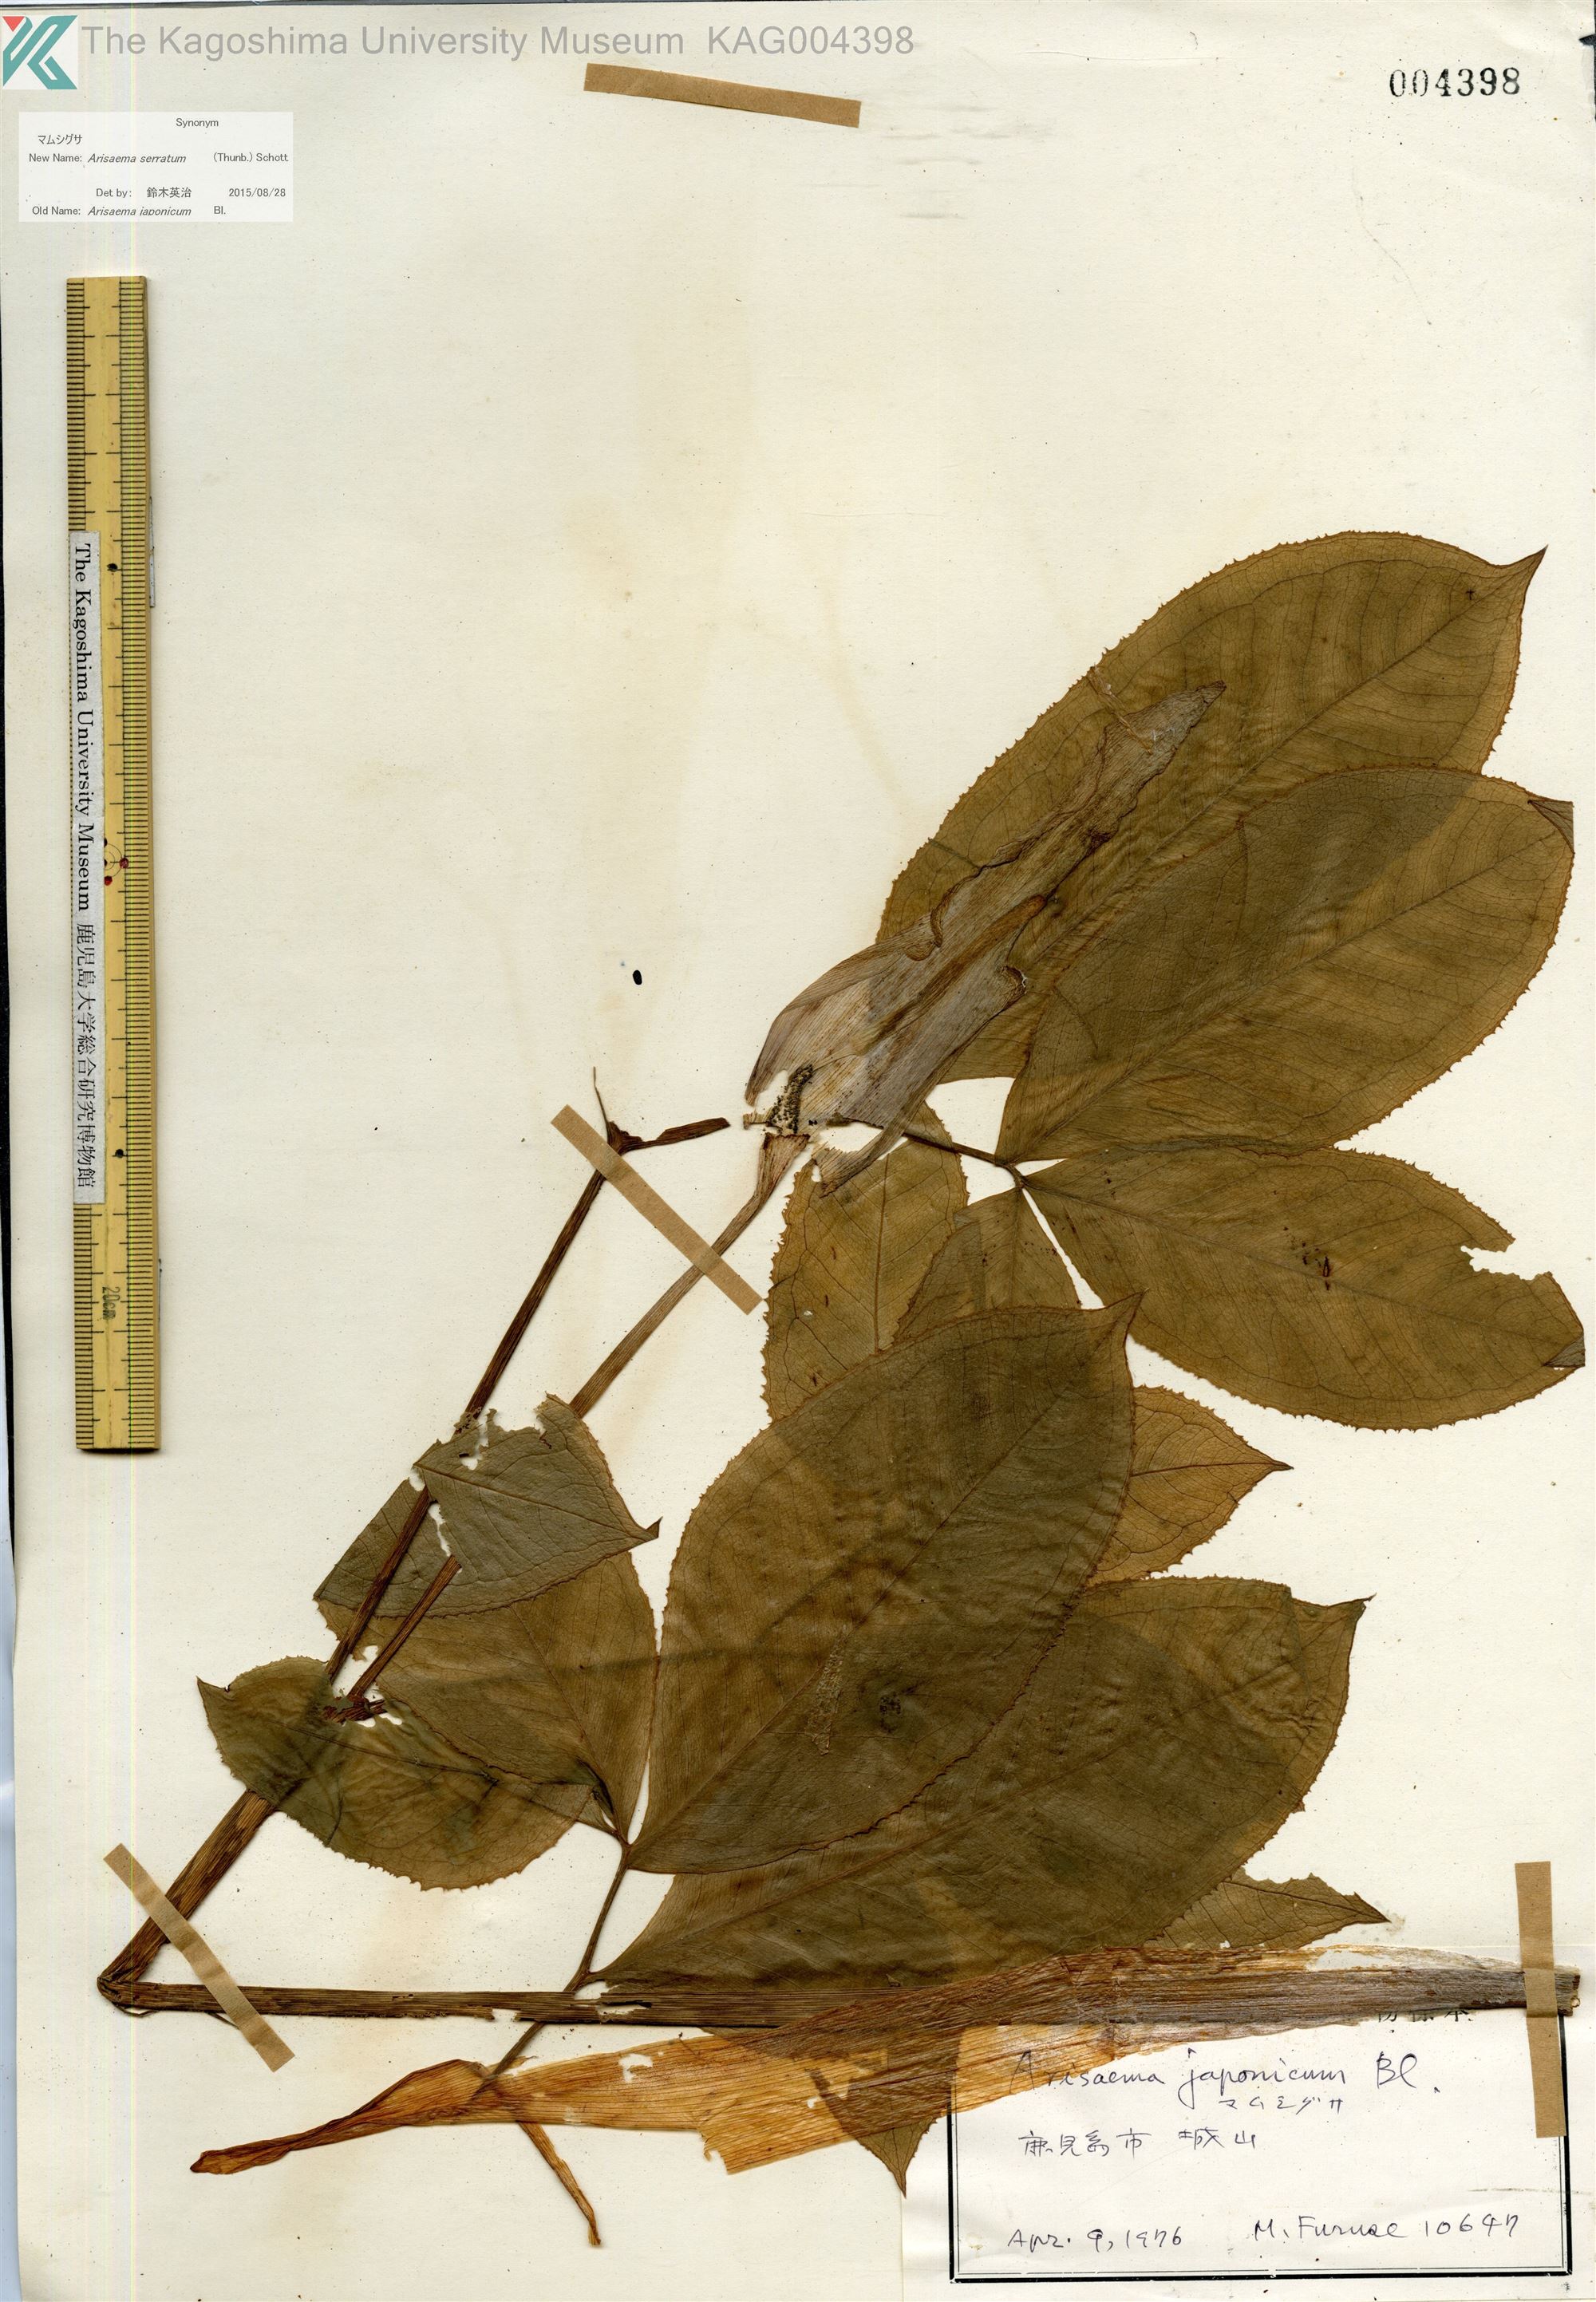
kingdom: Plantae
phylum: Tracheophyta
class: Liliopsida
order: Alismatales
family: Araceae
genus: Arisaema
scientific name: Arisaema serratum
